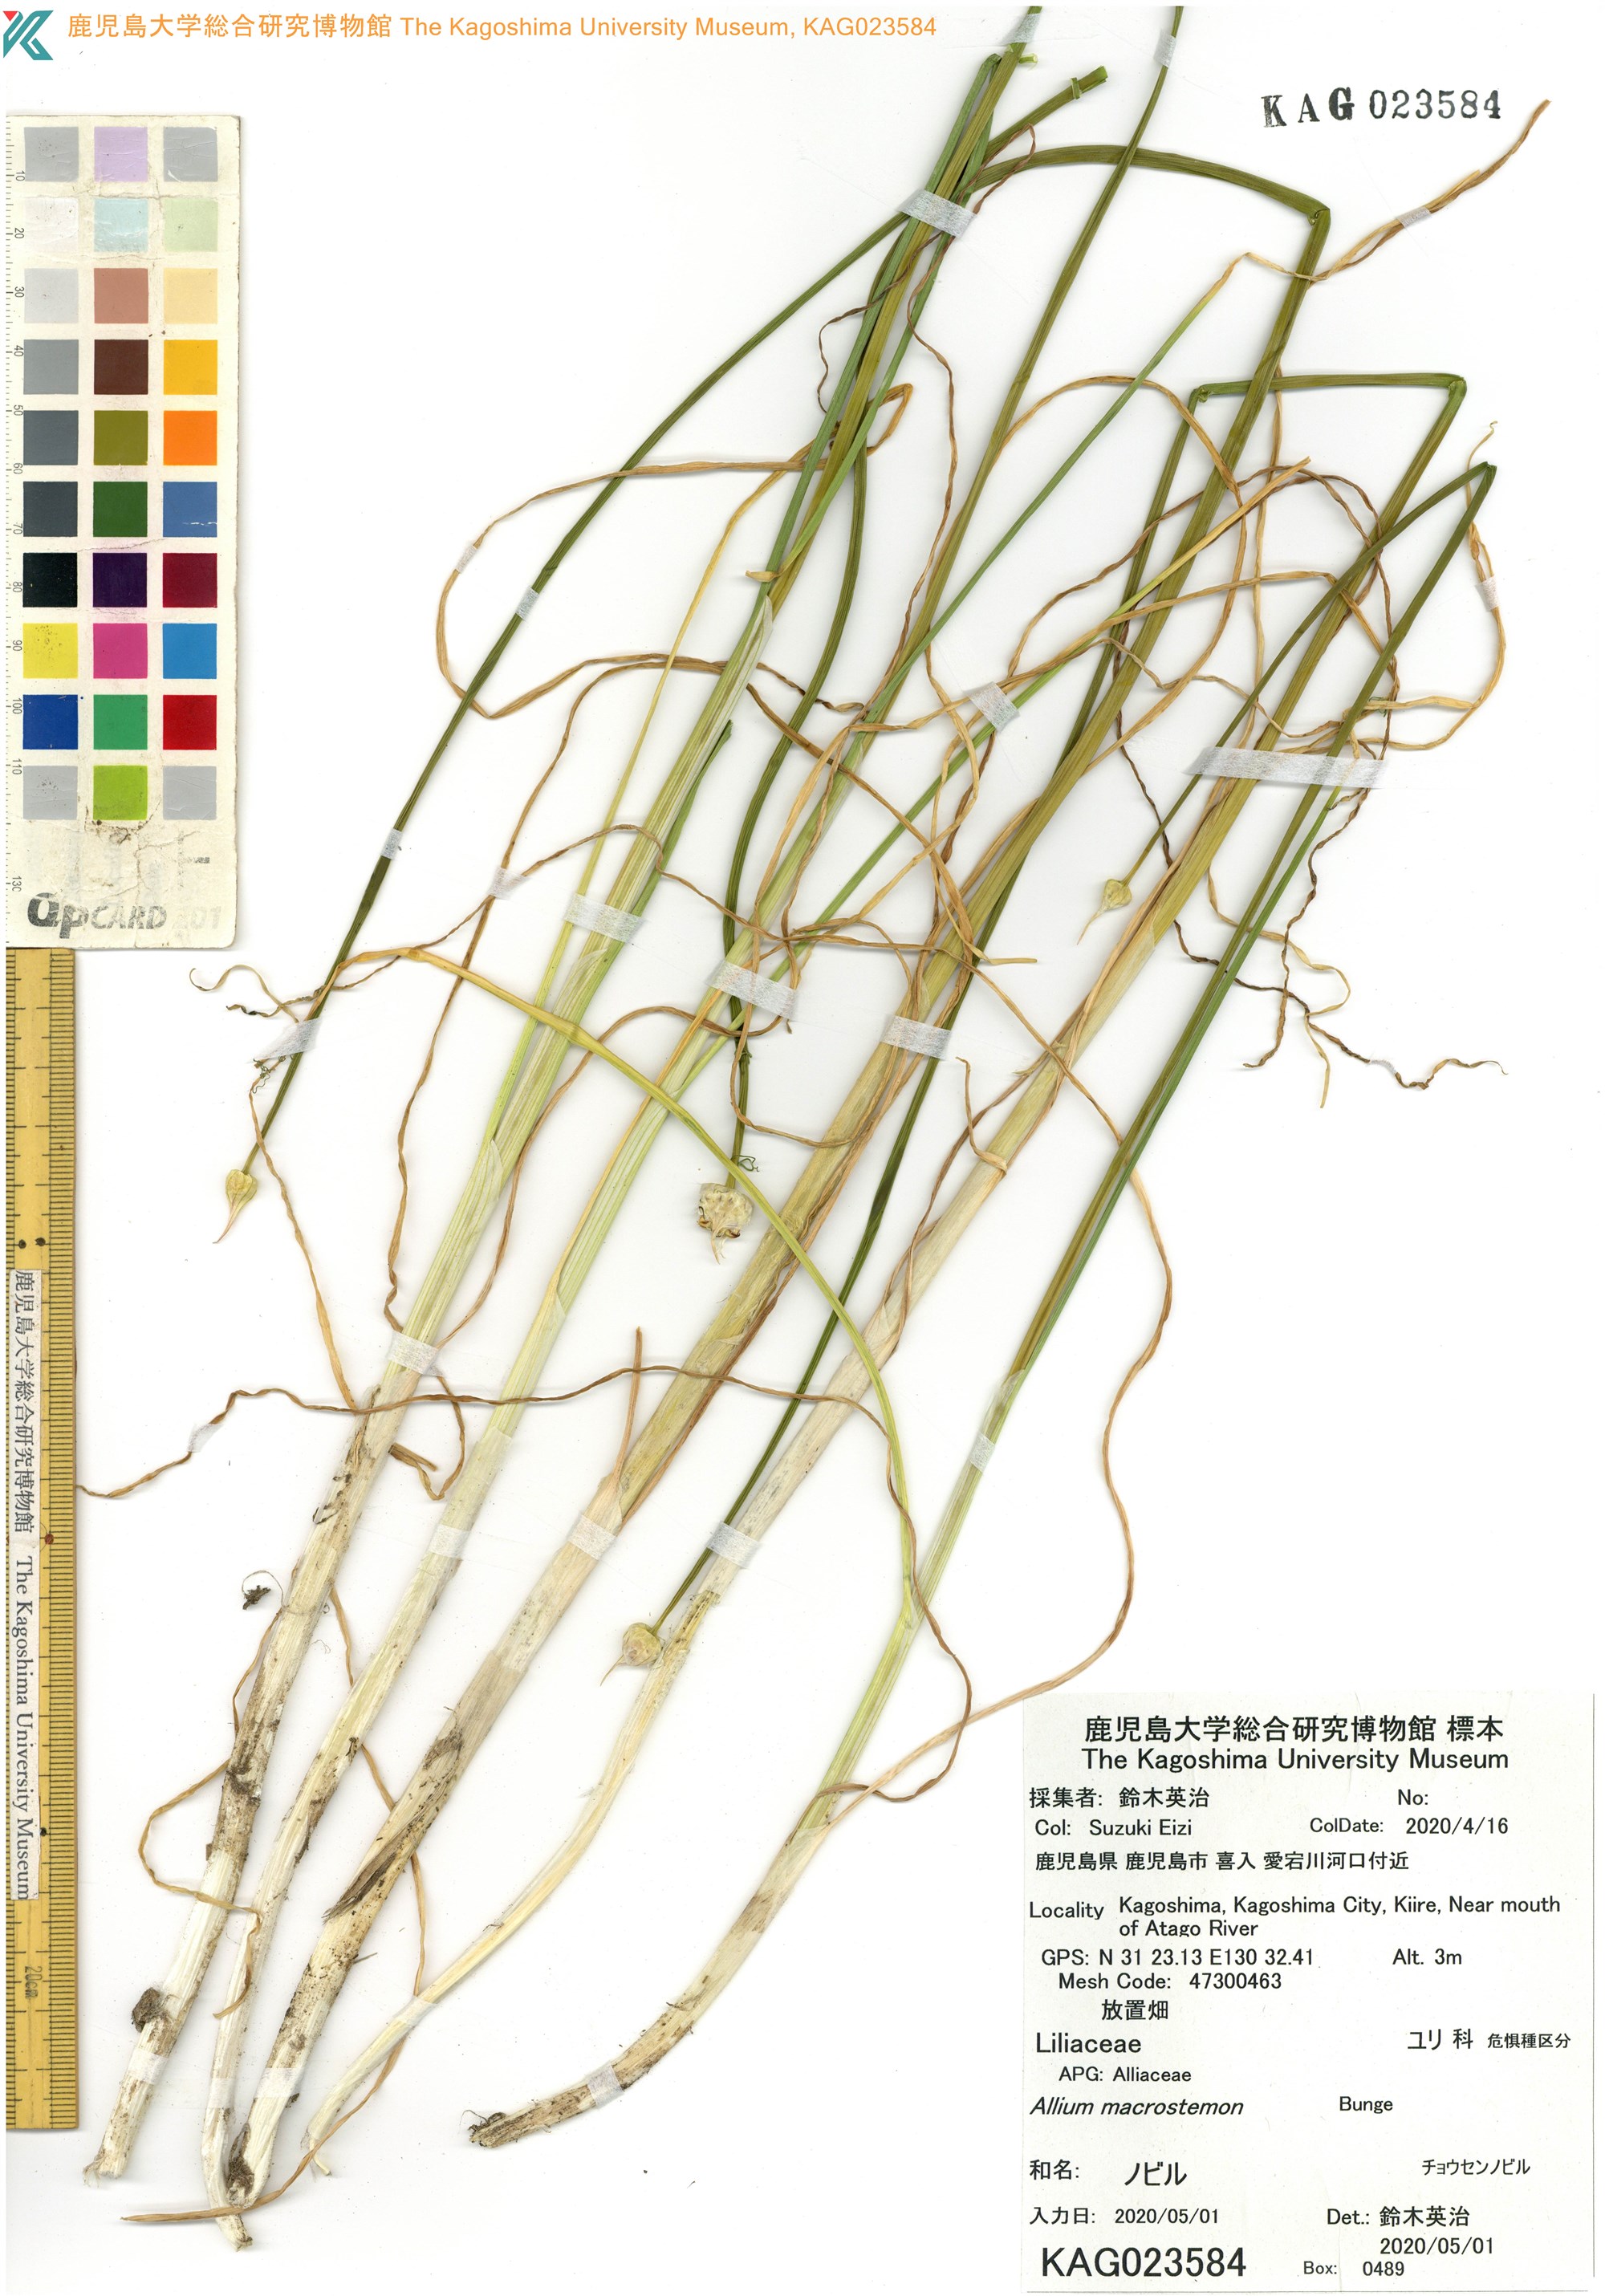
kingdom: Plantae
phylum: Tracheophyta
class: Liliopsida
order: Asparagales
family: Amaryllidaceae
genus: Allium
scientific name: Allium macrostemon
